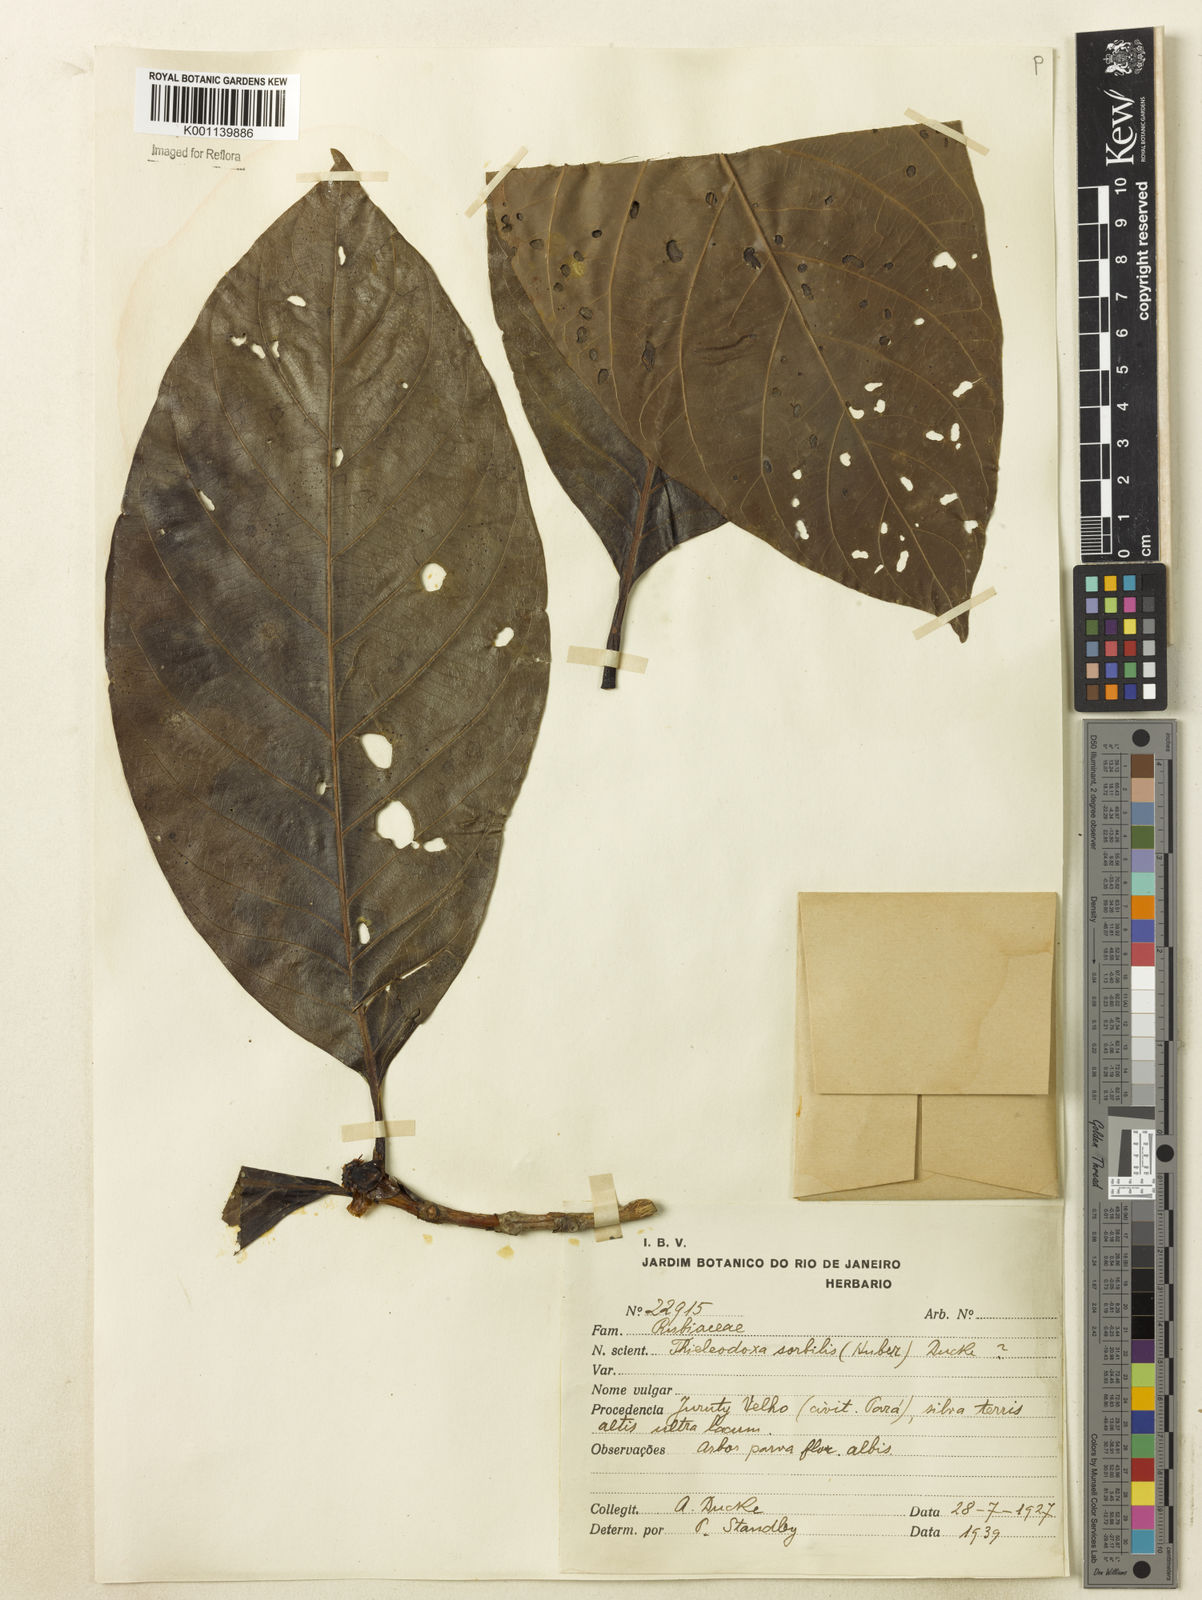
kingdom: Plantae
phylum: Tracheophyta
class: Magnoliopsida
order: Gentianales
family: Rubiaceae
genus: Alibertia
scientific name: Alibertia sorbilis
